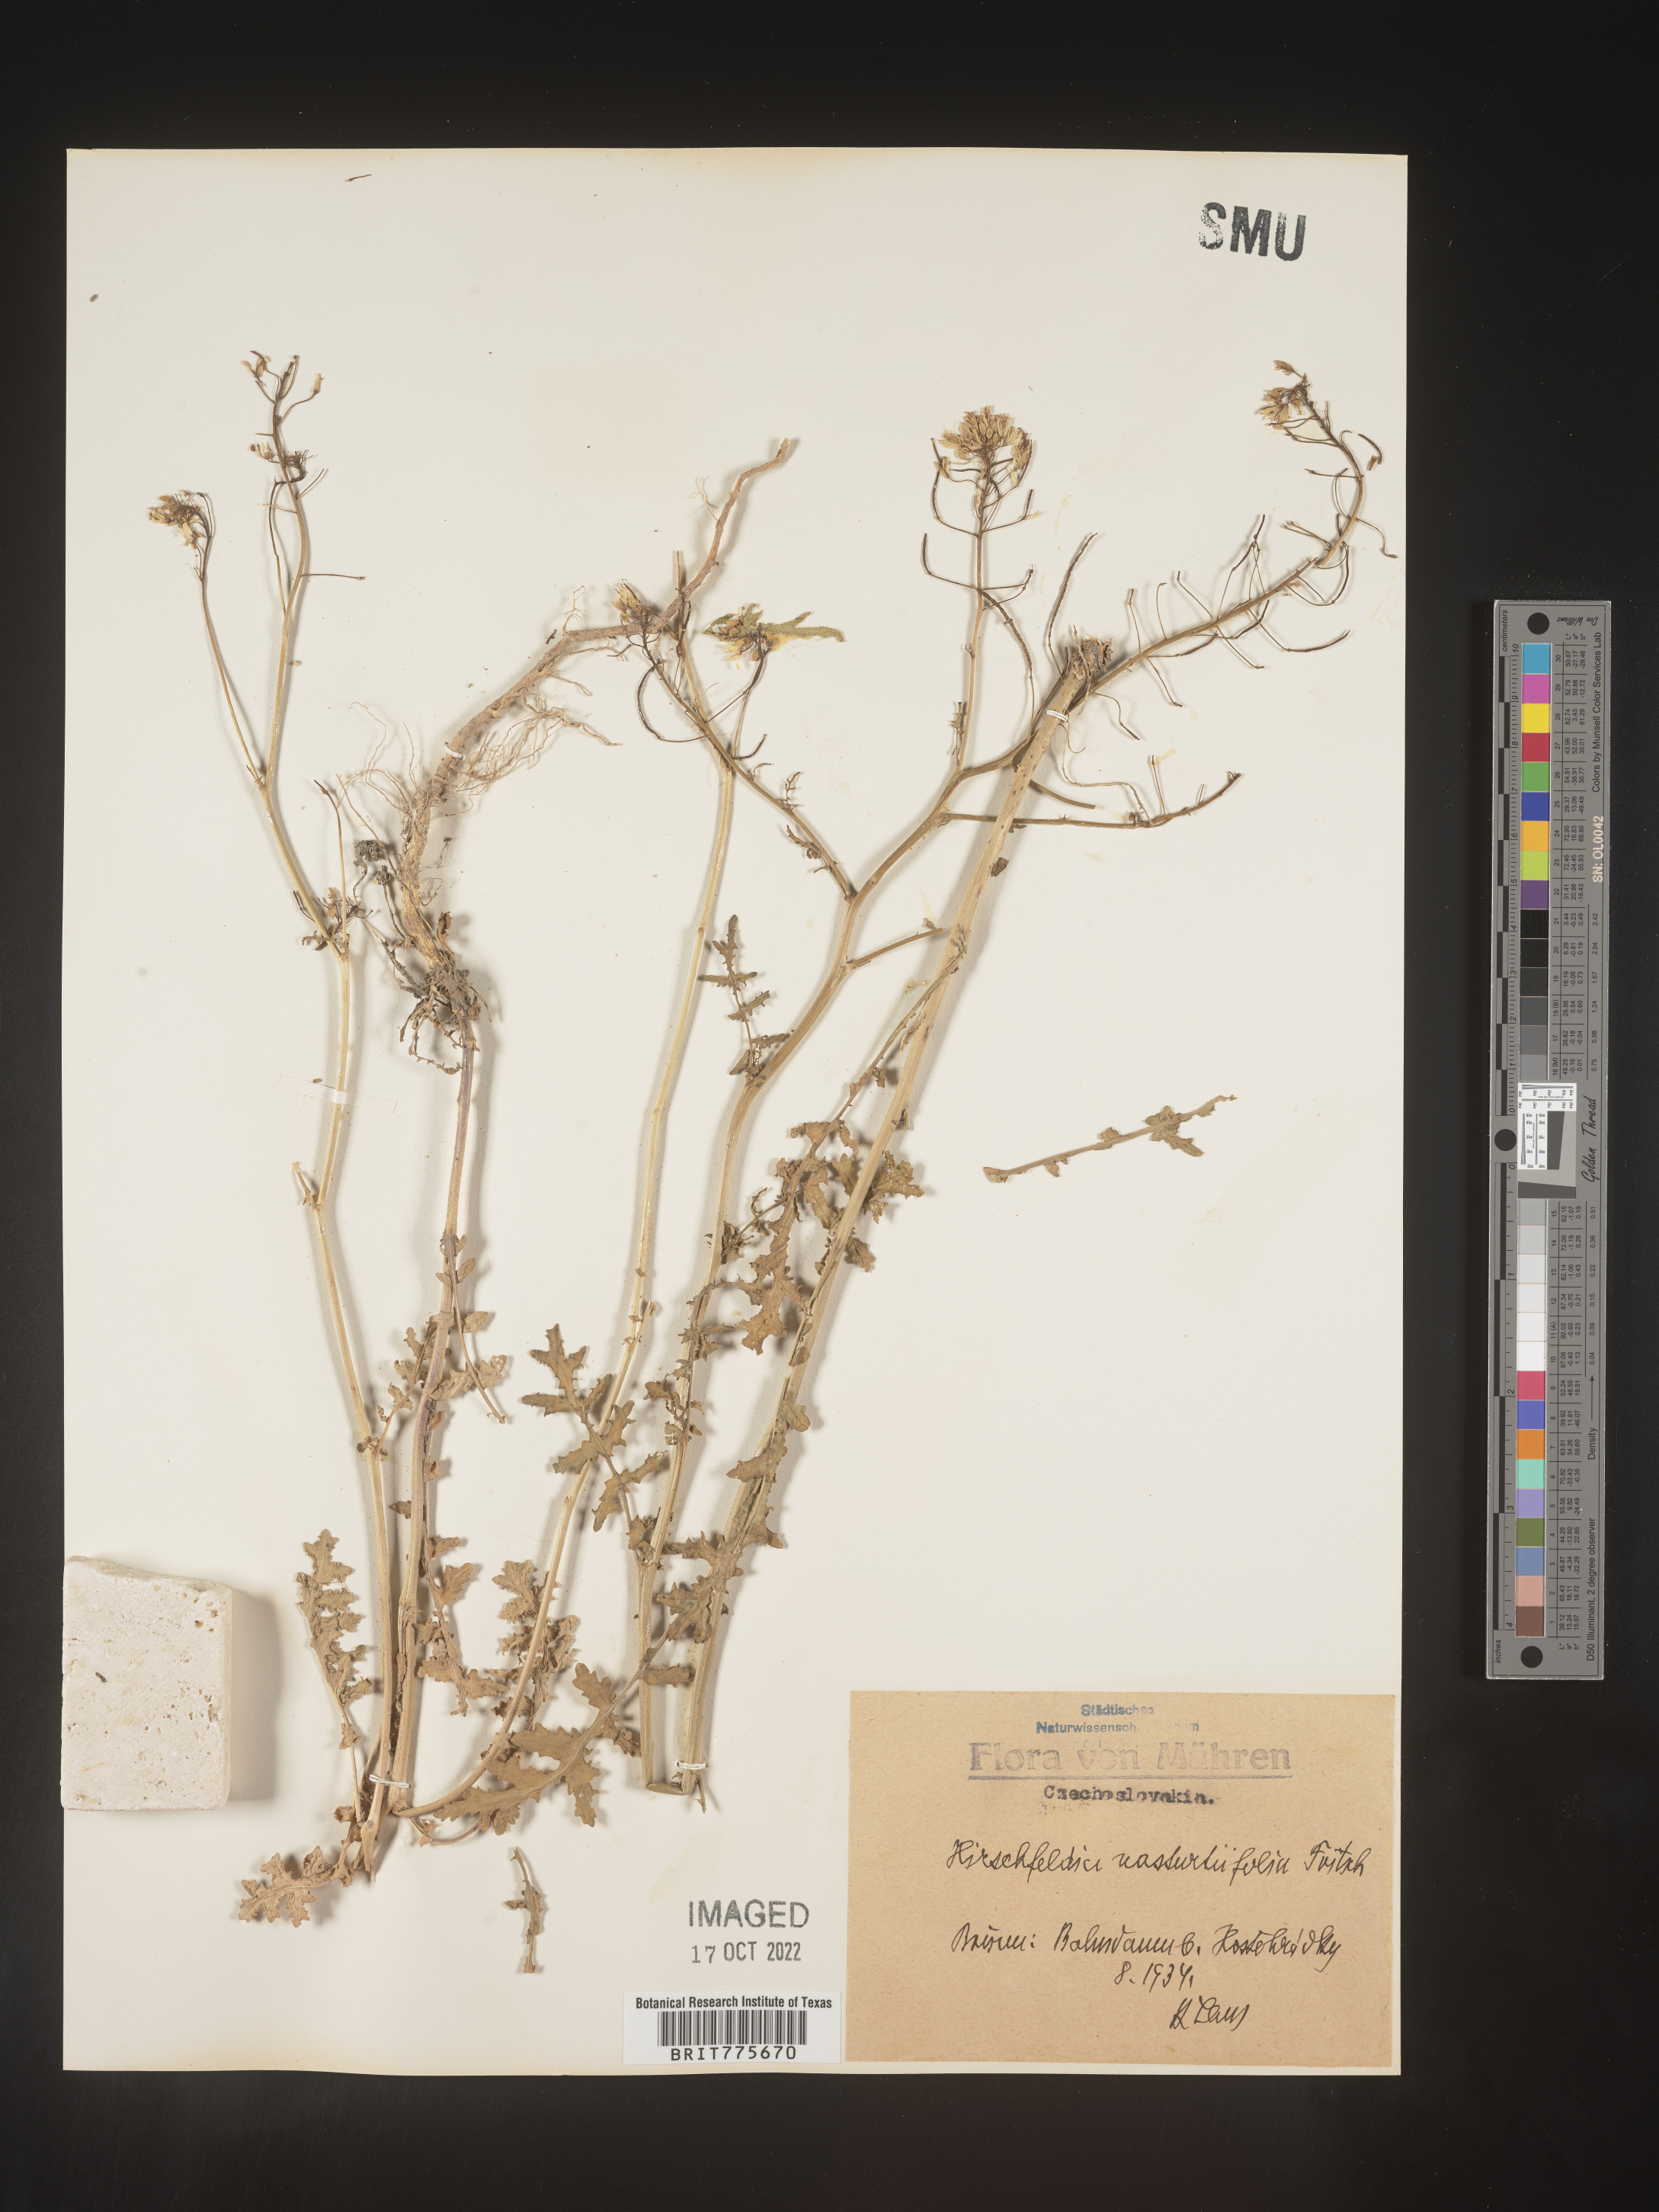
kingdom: Plantae
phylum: Tracheophyta
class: Magnoliopsida
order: Brassicales
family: Brassicaceae
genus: Hirschfeldia
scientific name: Hirschfeldia
